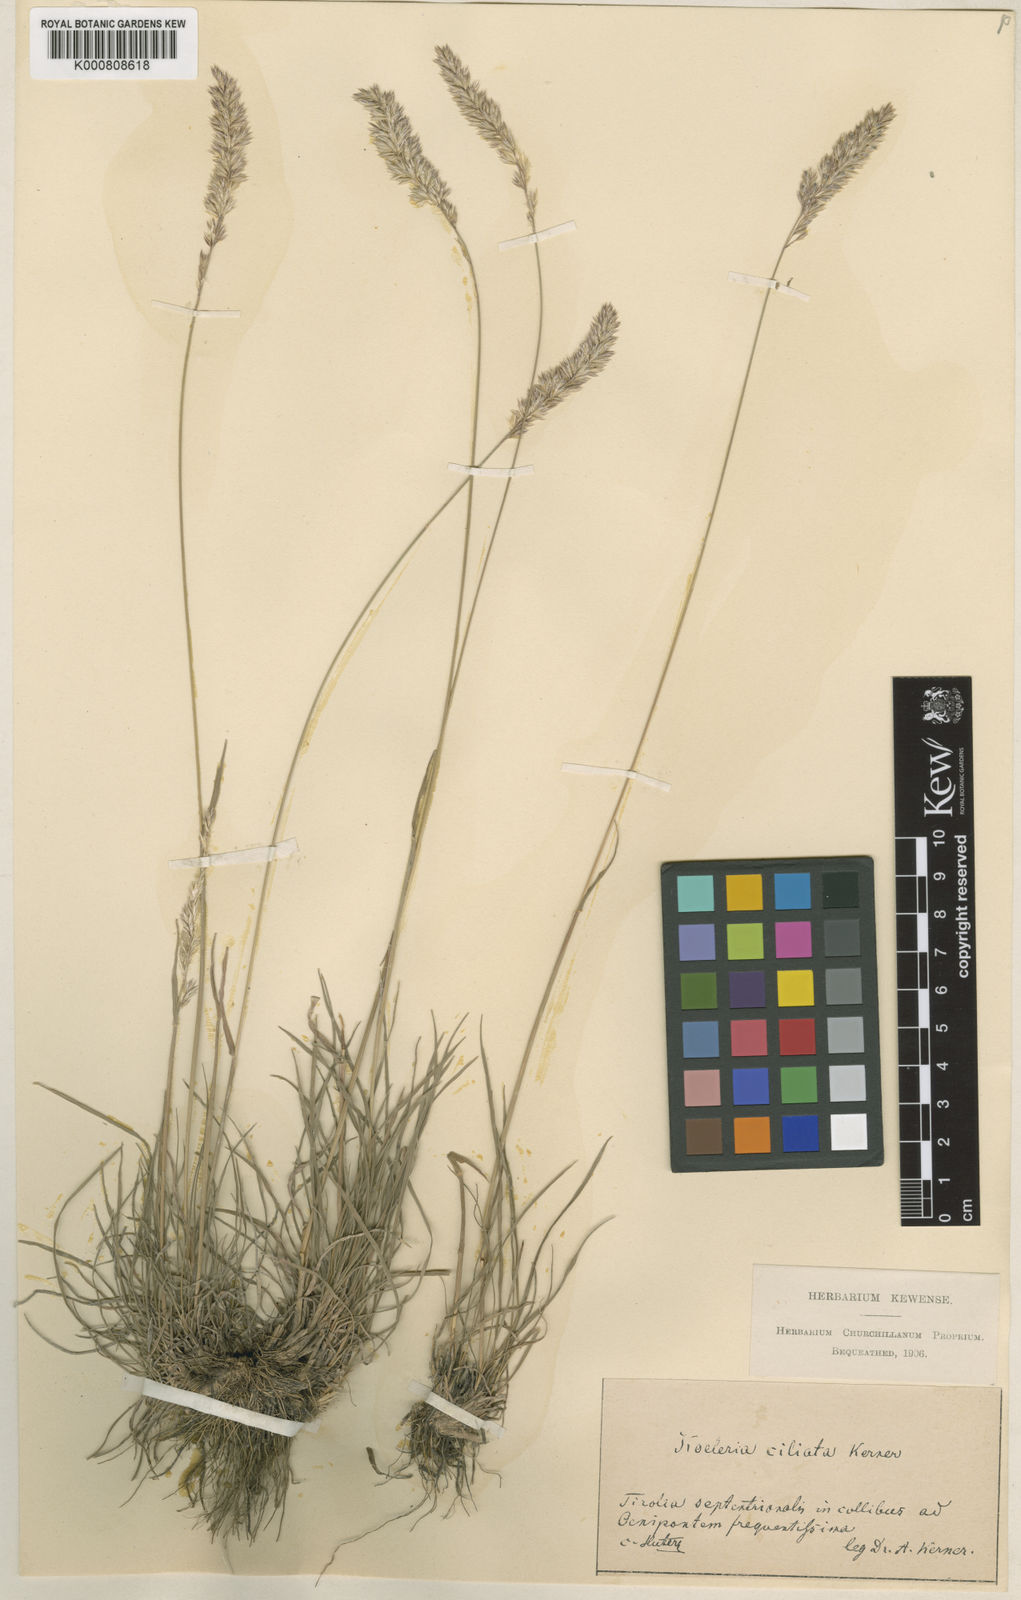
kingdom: Plantae
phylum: Tracheophyta
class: Liliopsida
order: Poales
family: Poaceae
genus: Koeleria
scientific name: Koeleria pyramidata
